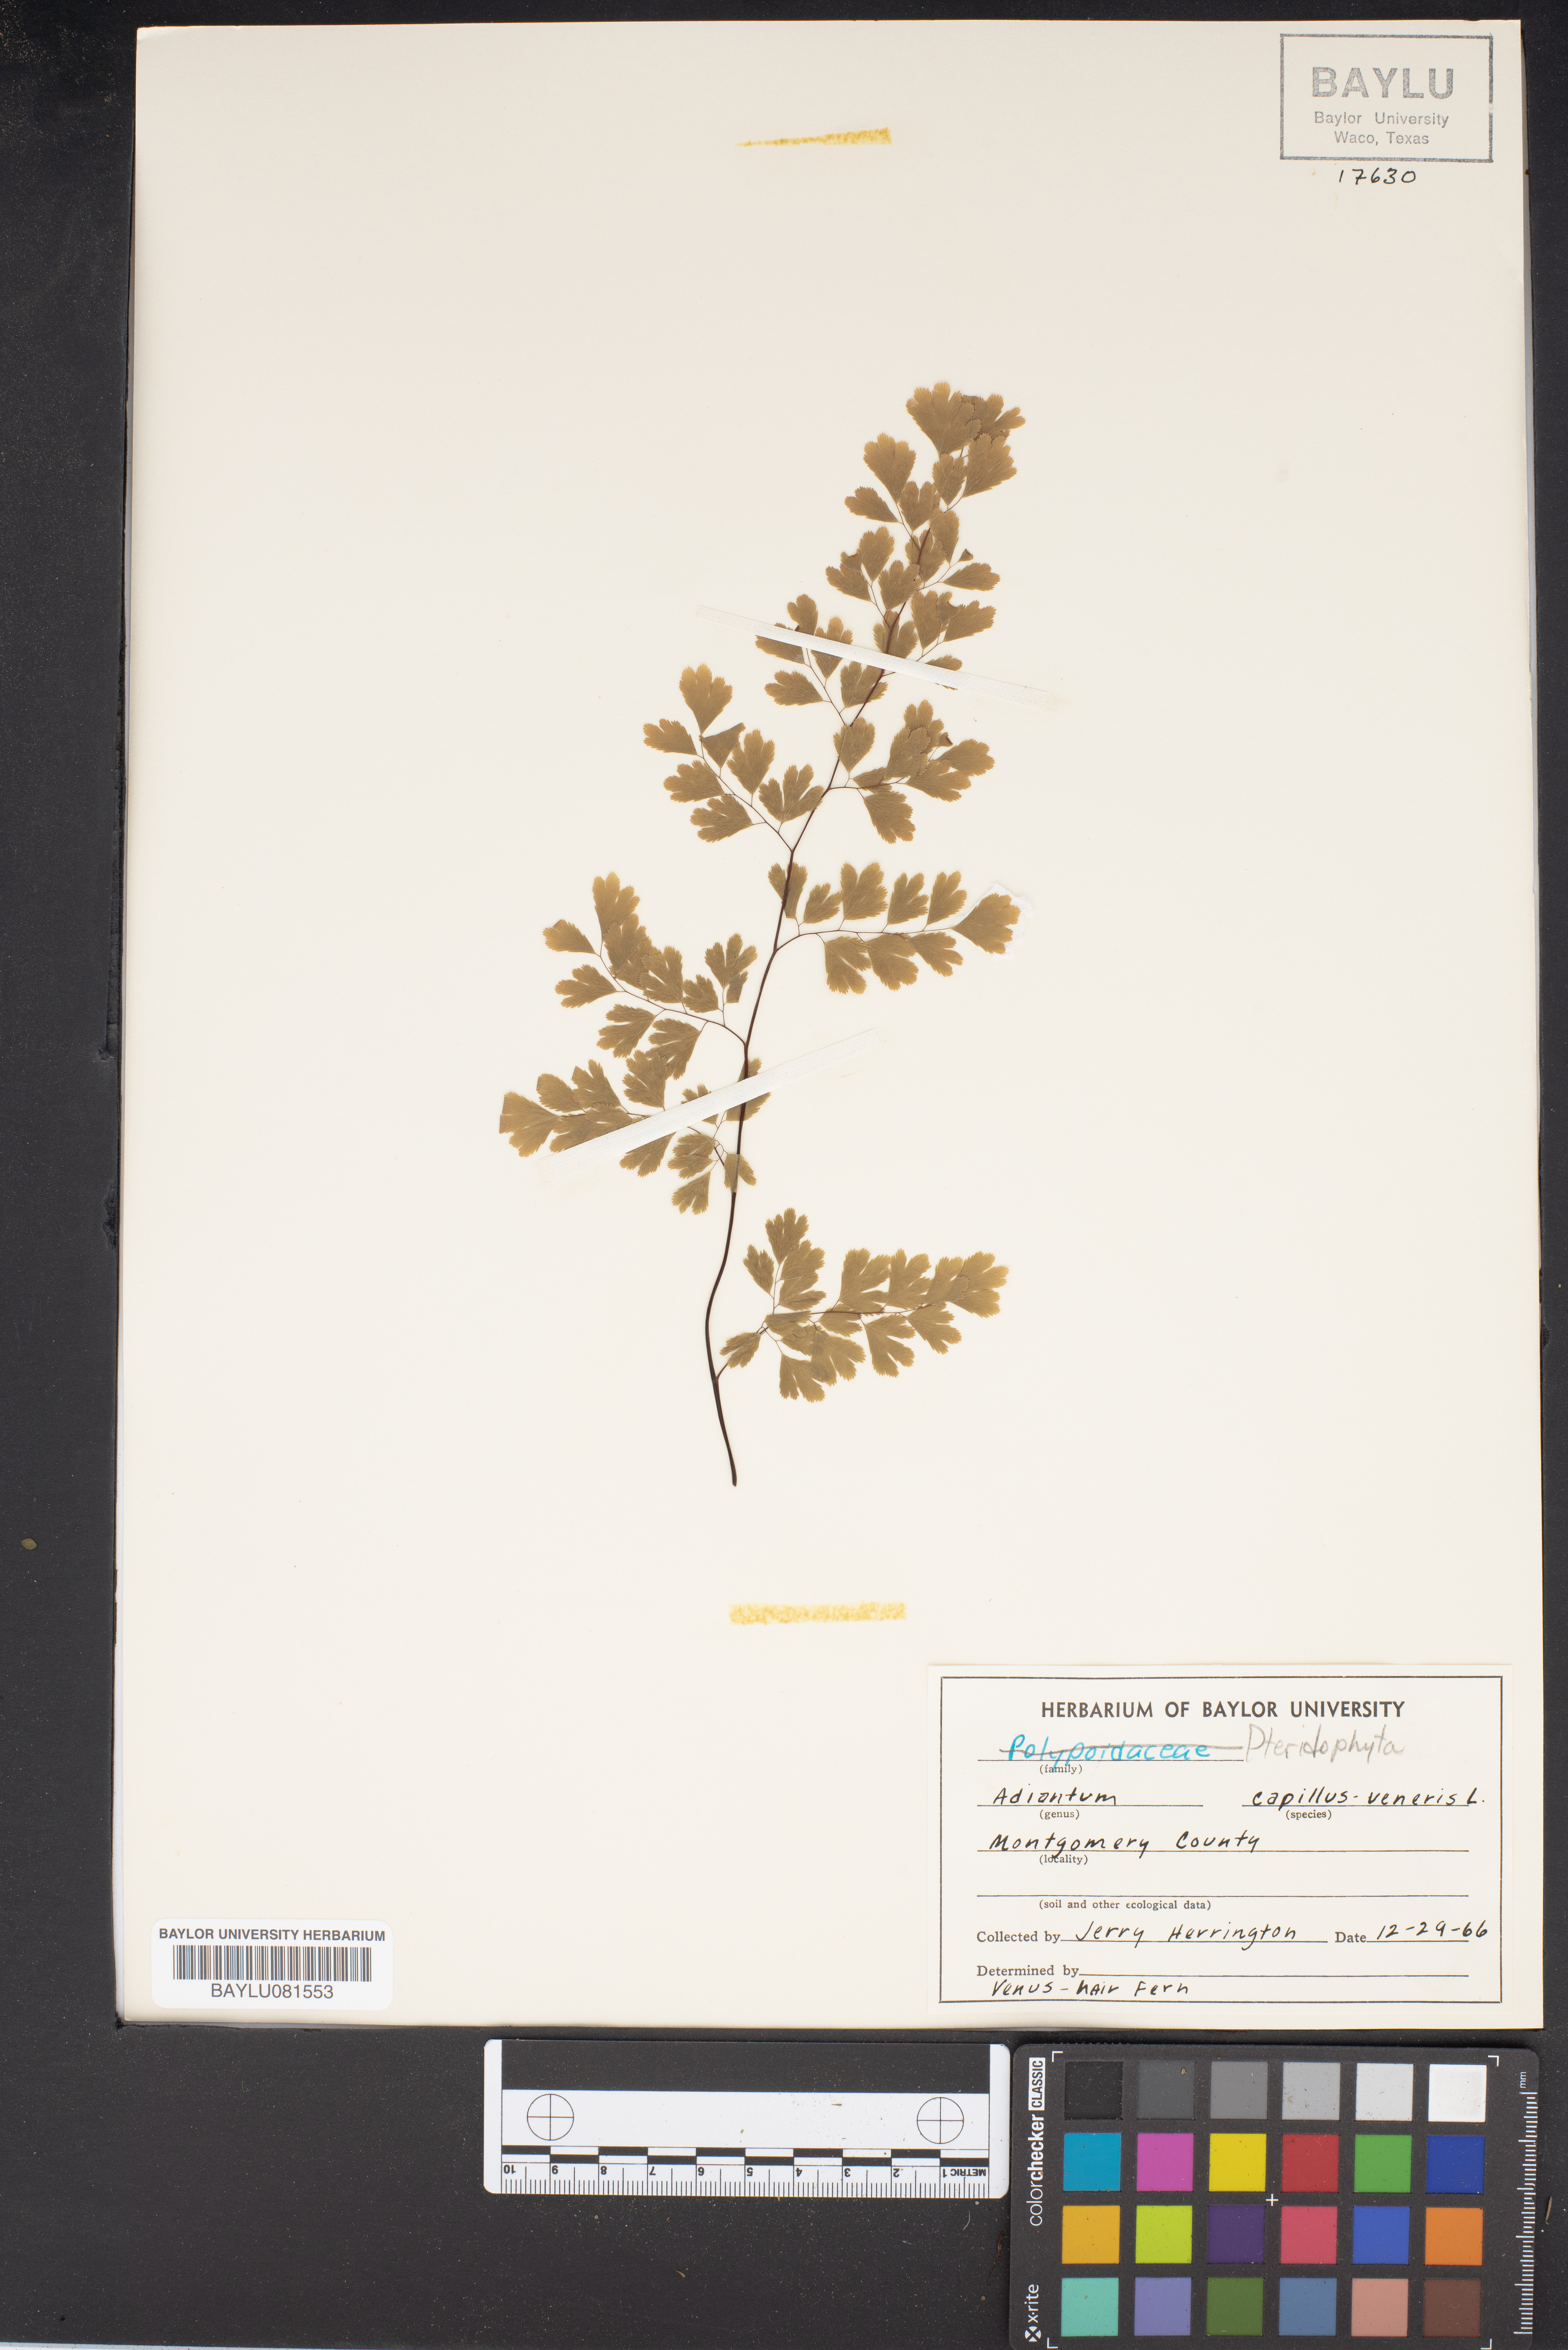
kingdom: Plantae
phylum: Tracheophyta
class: Polypodiopsida
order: Polypodiales
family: Pteridaceae
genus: Adiantum
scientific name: Adiantum capillus-veneris
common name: Maidenhair fern
